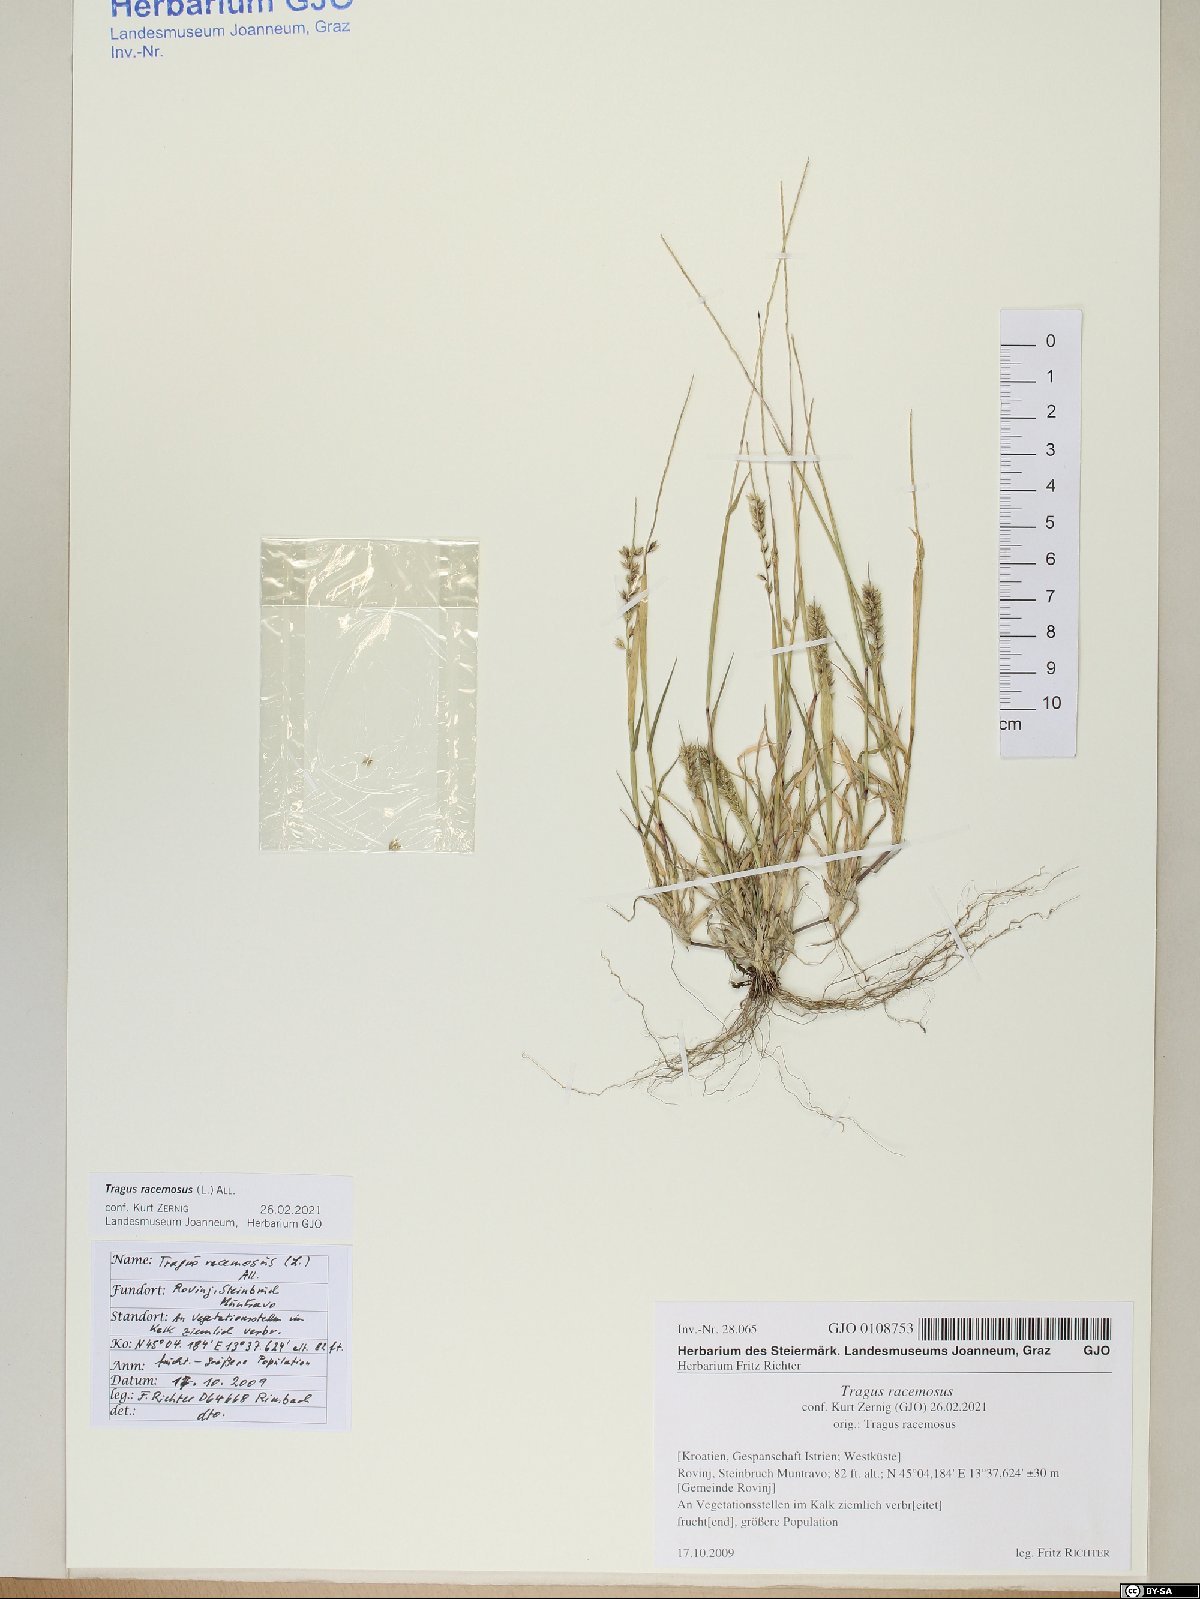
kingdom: Plantae
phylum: Tracheophyta
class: Liliopsida
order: Poales
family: Poaceae
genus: Tragus
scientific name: Tragus racemosus
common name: European bur-grass
